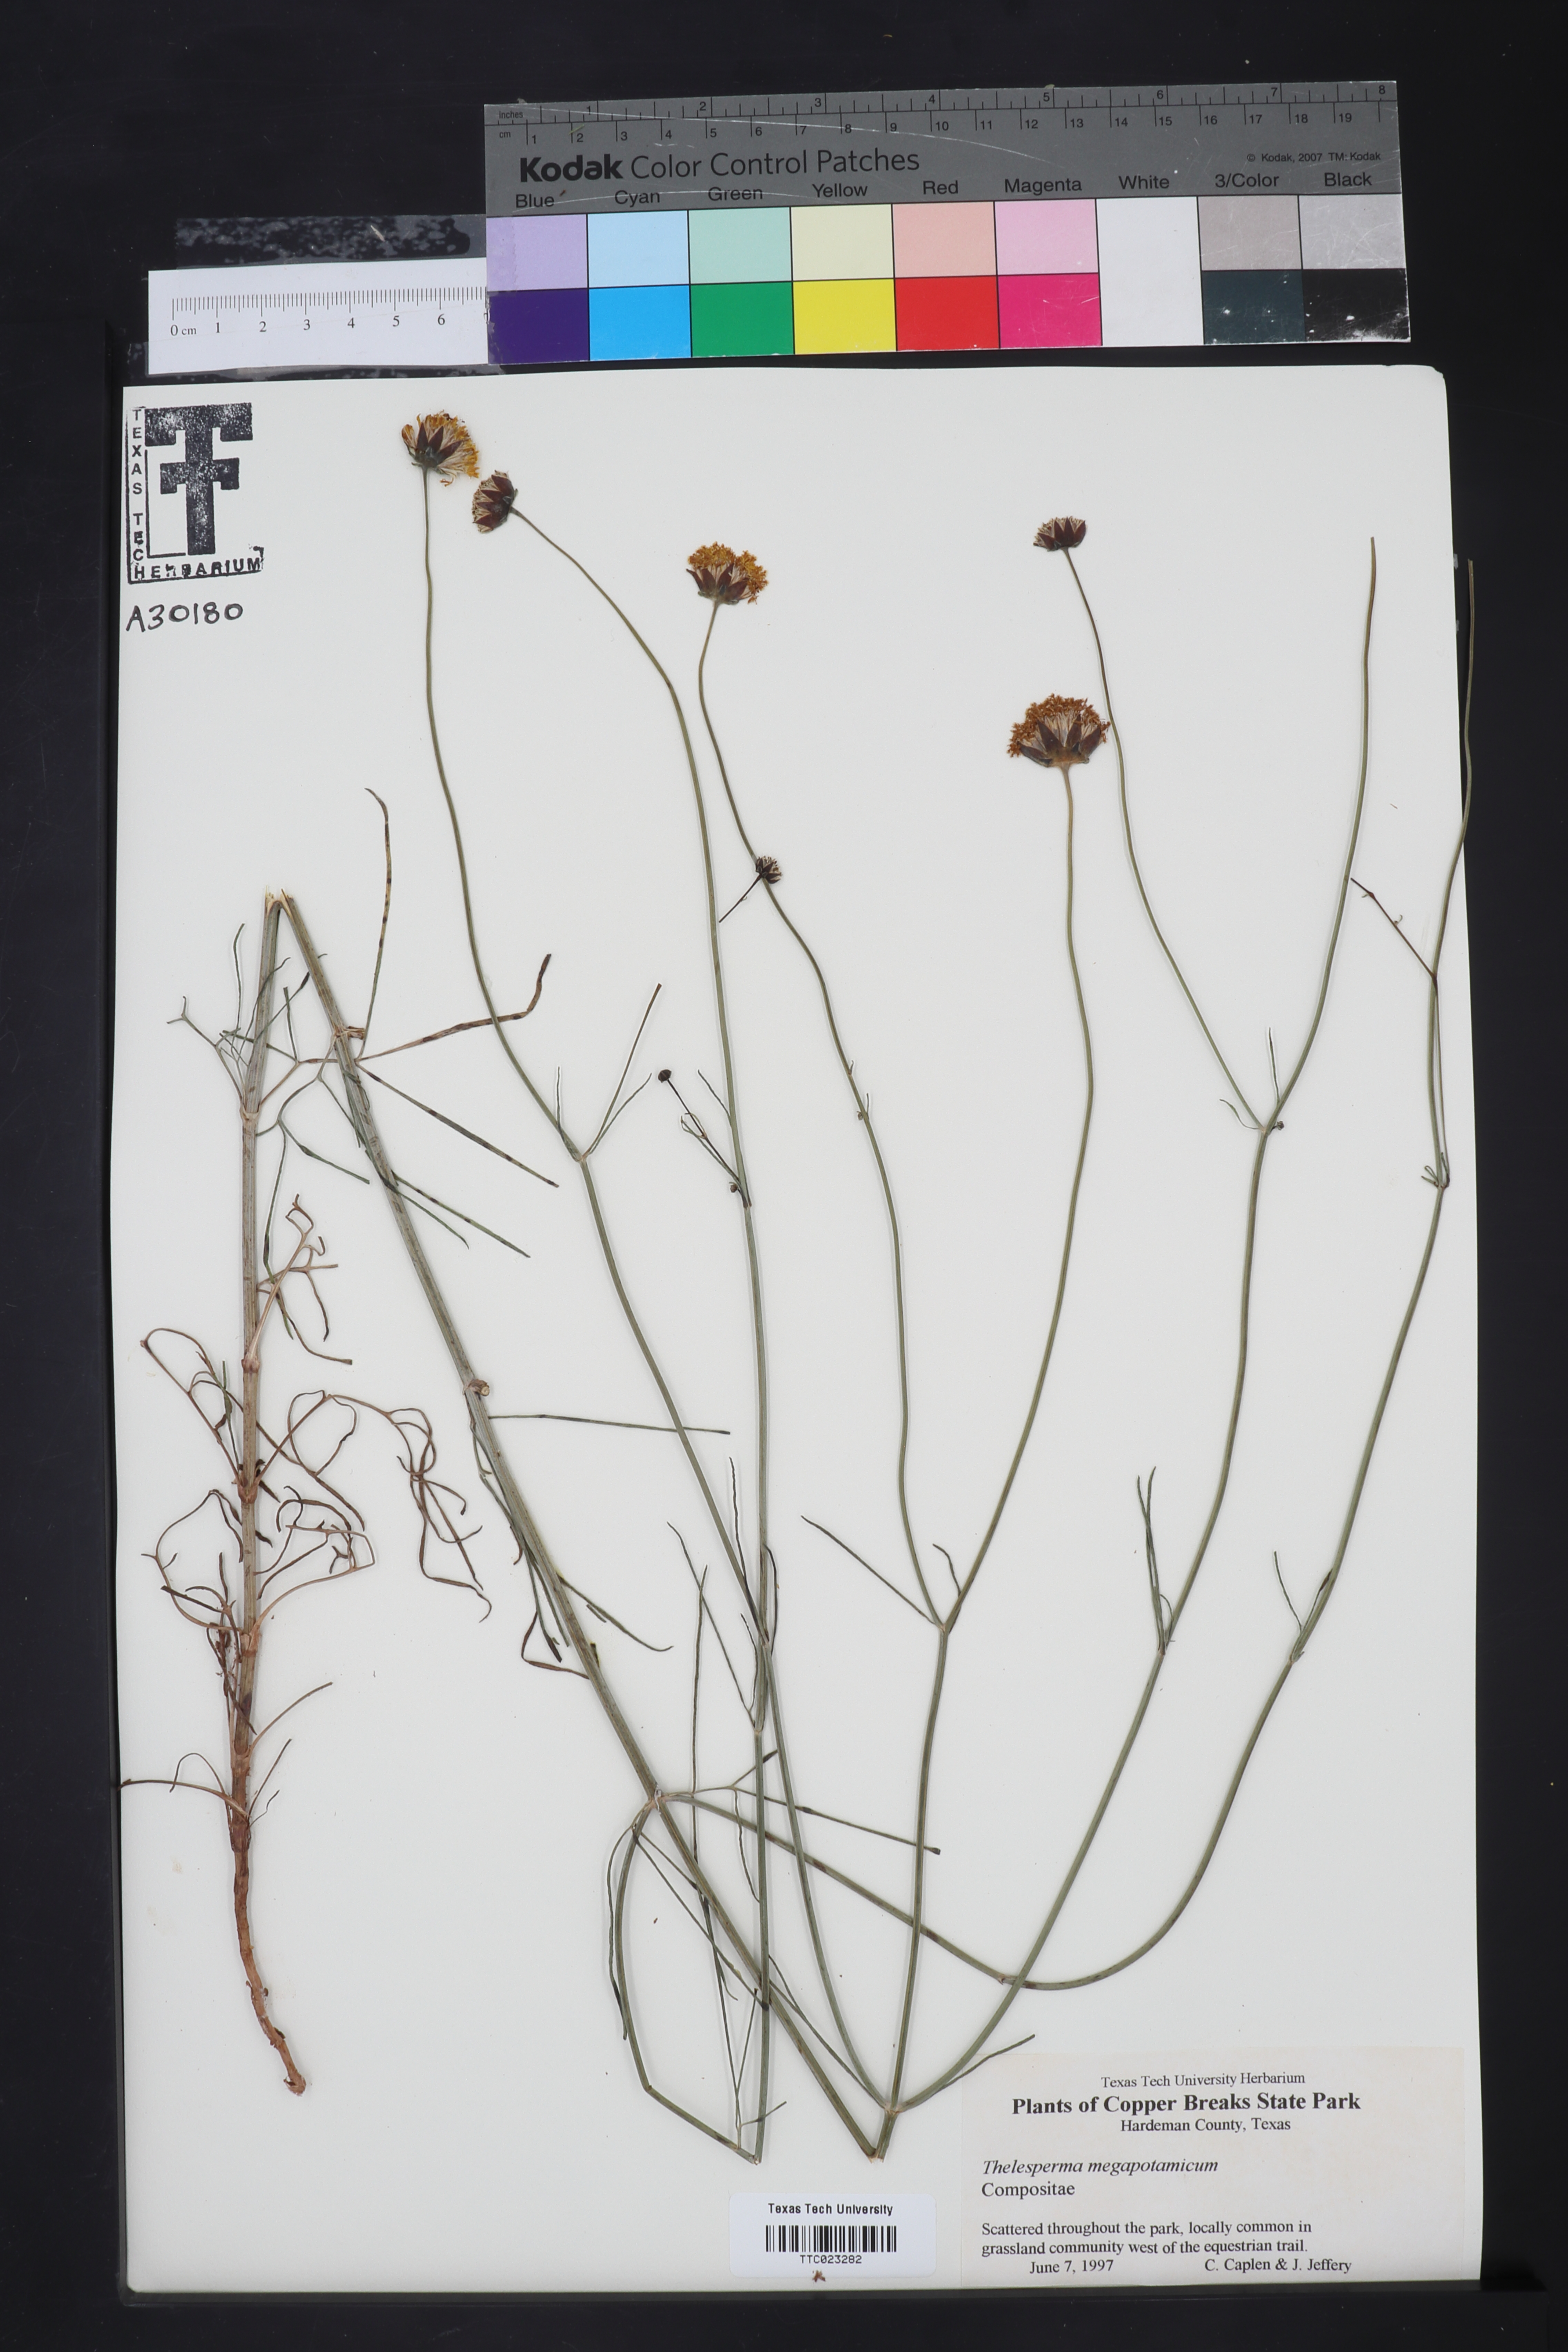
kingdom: Plantae
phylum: Tracheophyta
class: Magnoliopsida
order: Asterales
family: Asteraceae
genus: Thelesperma
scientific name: Thelesperma megapotamicum
